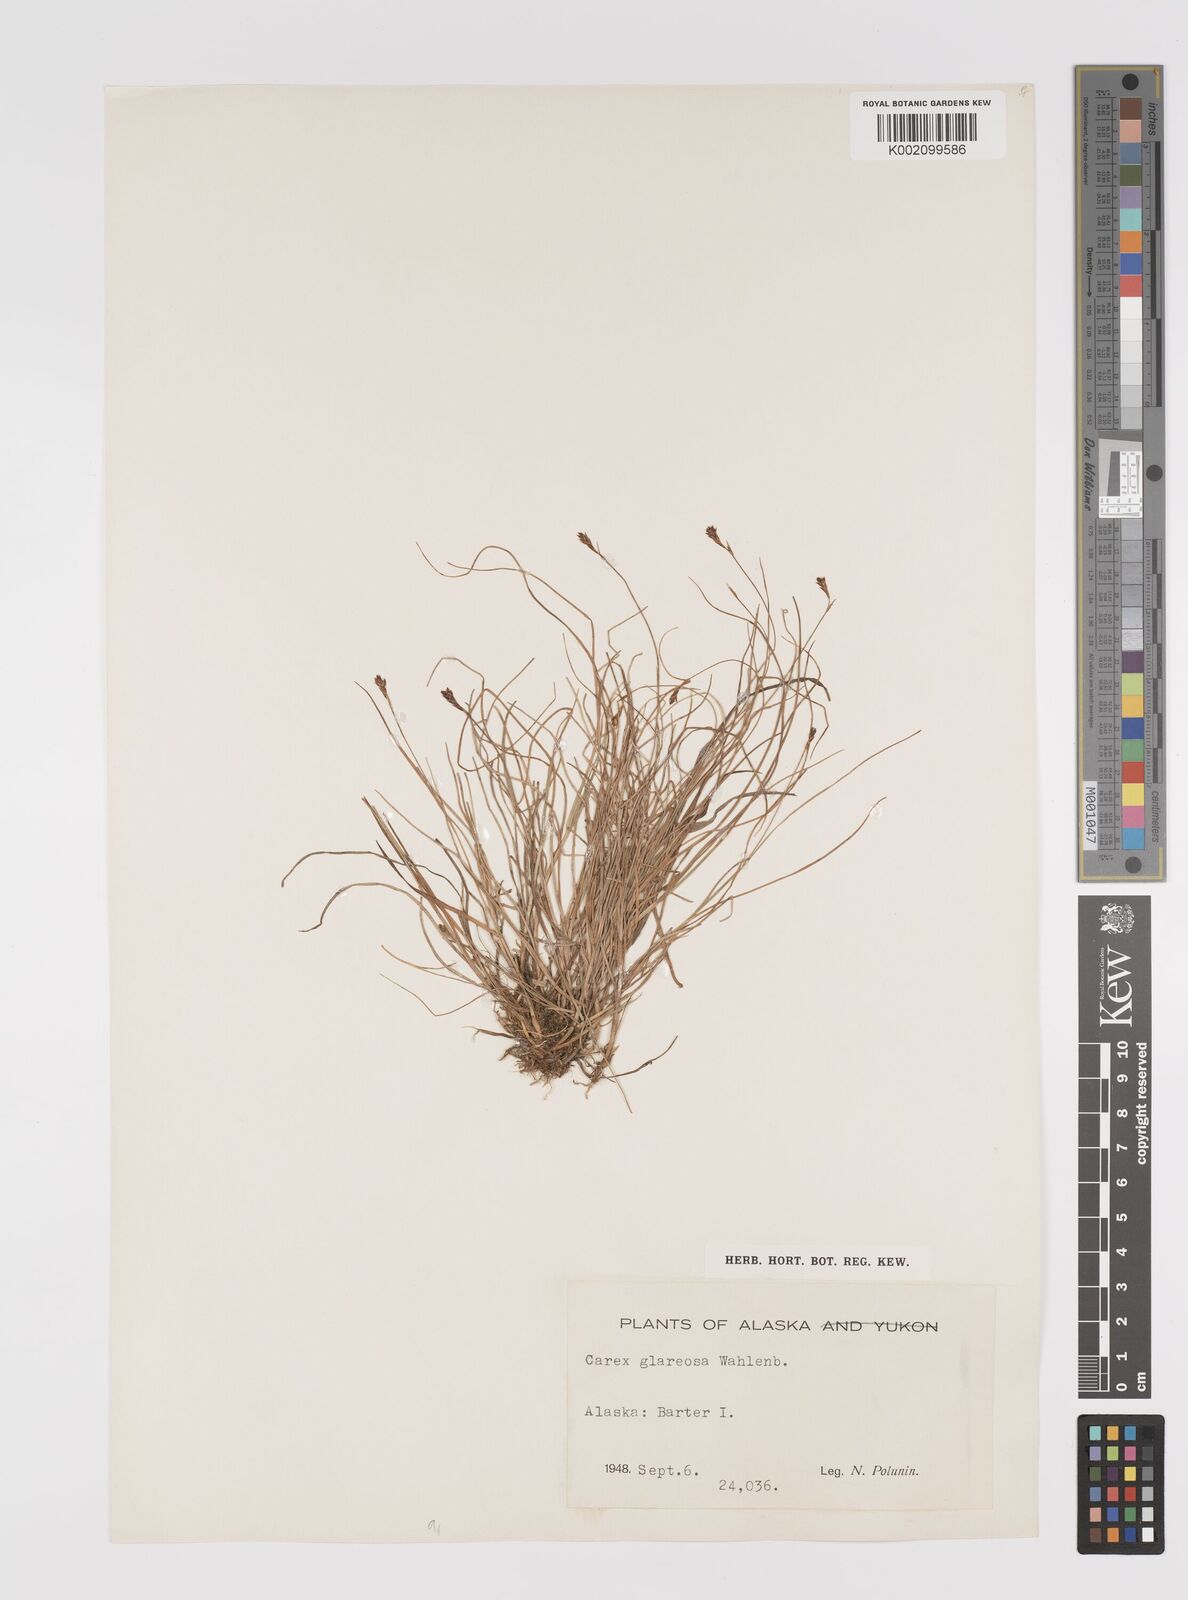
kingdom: Plantae
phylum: Tracheophyta
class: Liliopsida
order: Poales
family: Cyperaceae
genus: Carex
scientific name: Carex glareosa
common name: Clustered sedge
